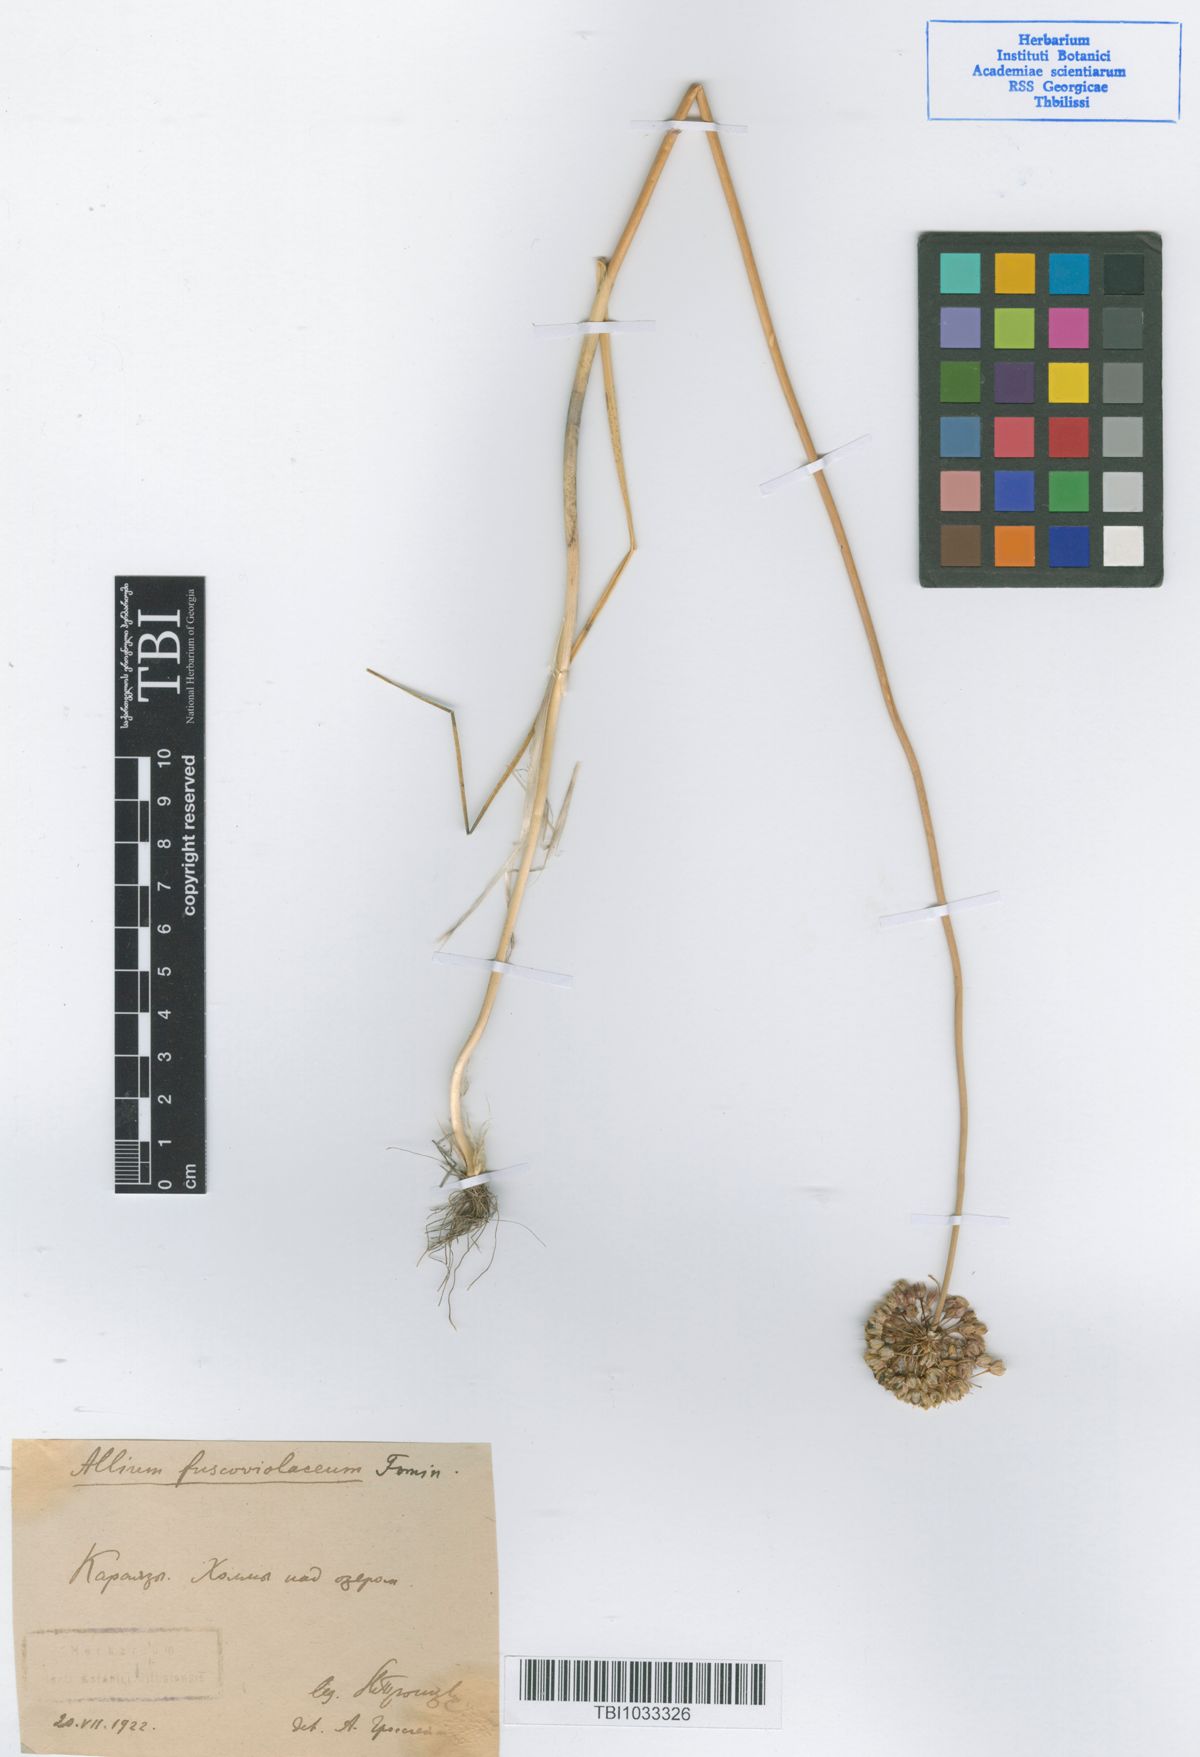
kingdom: Plantae
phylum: Tracheophyta
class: Liliopsida
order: Asparagales
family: Amaryllidaceae
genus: Allium
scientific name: Allium fuscoviolaceum
